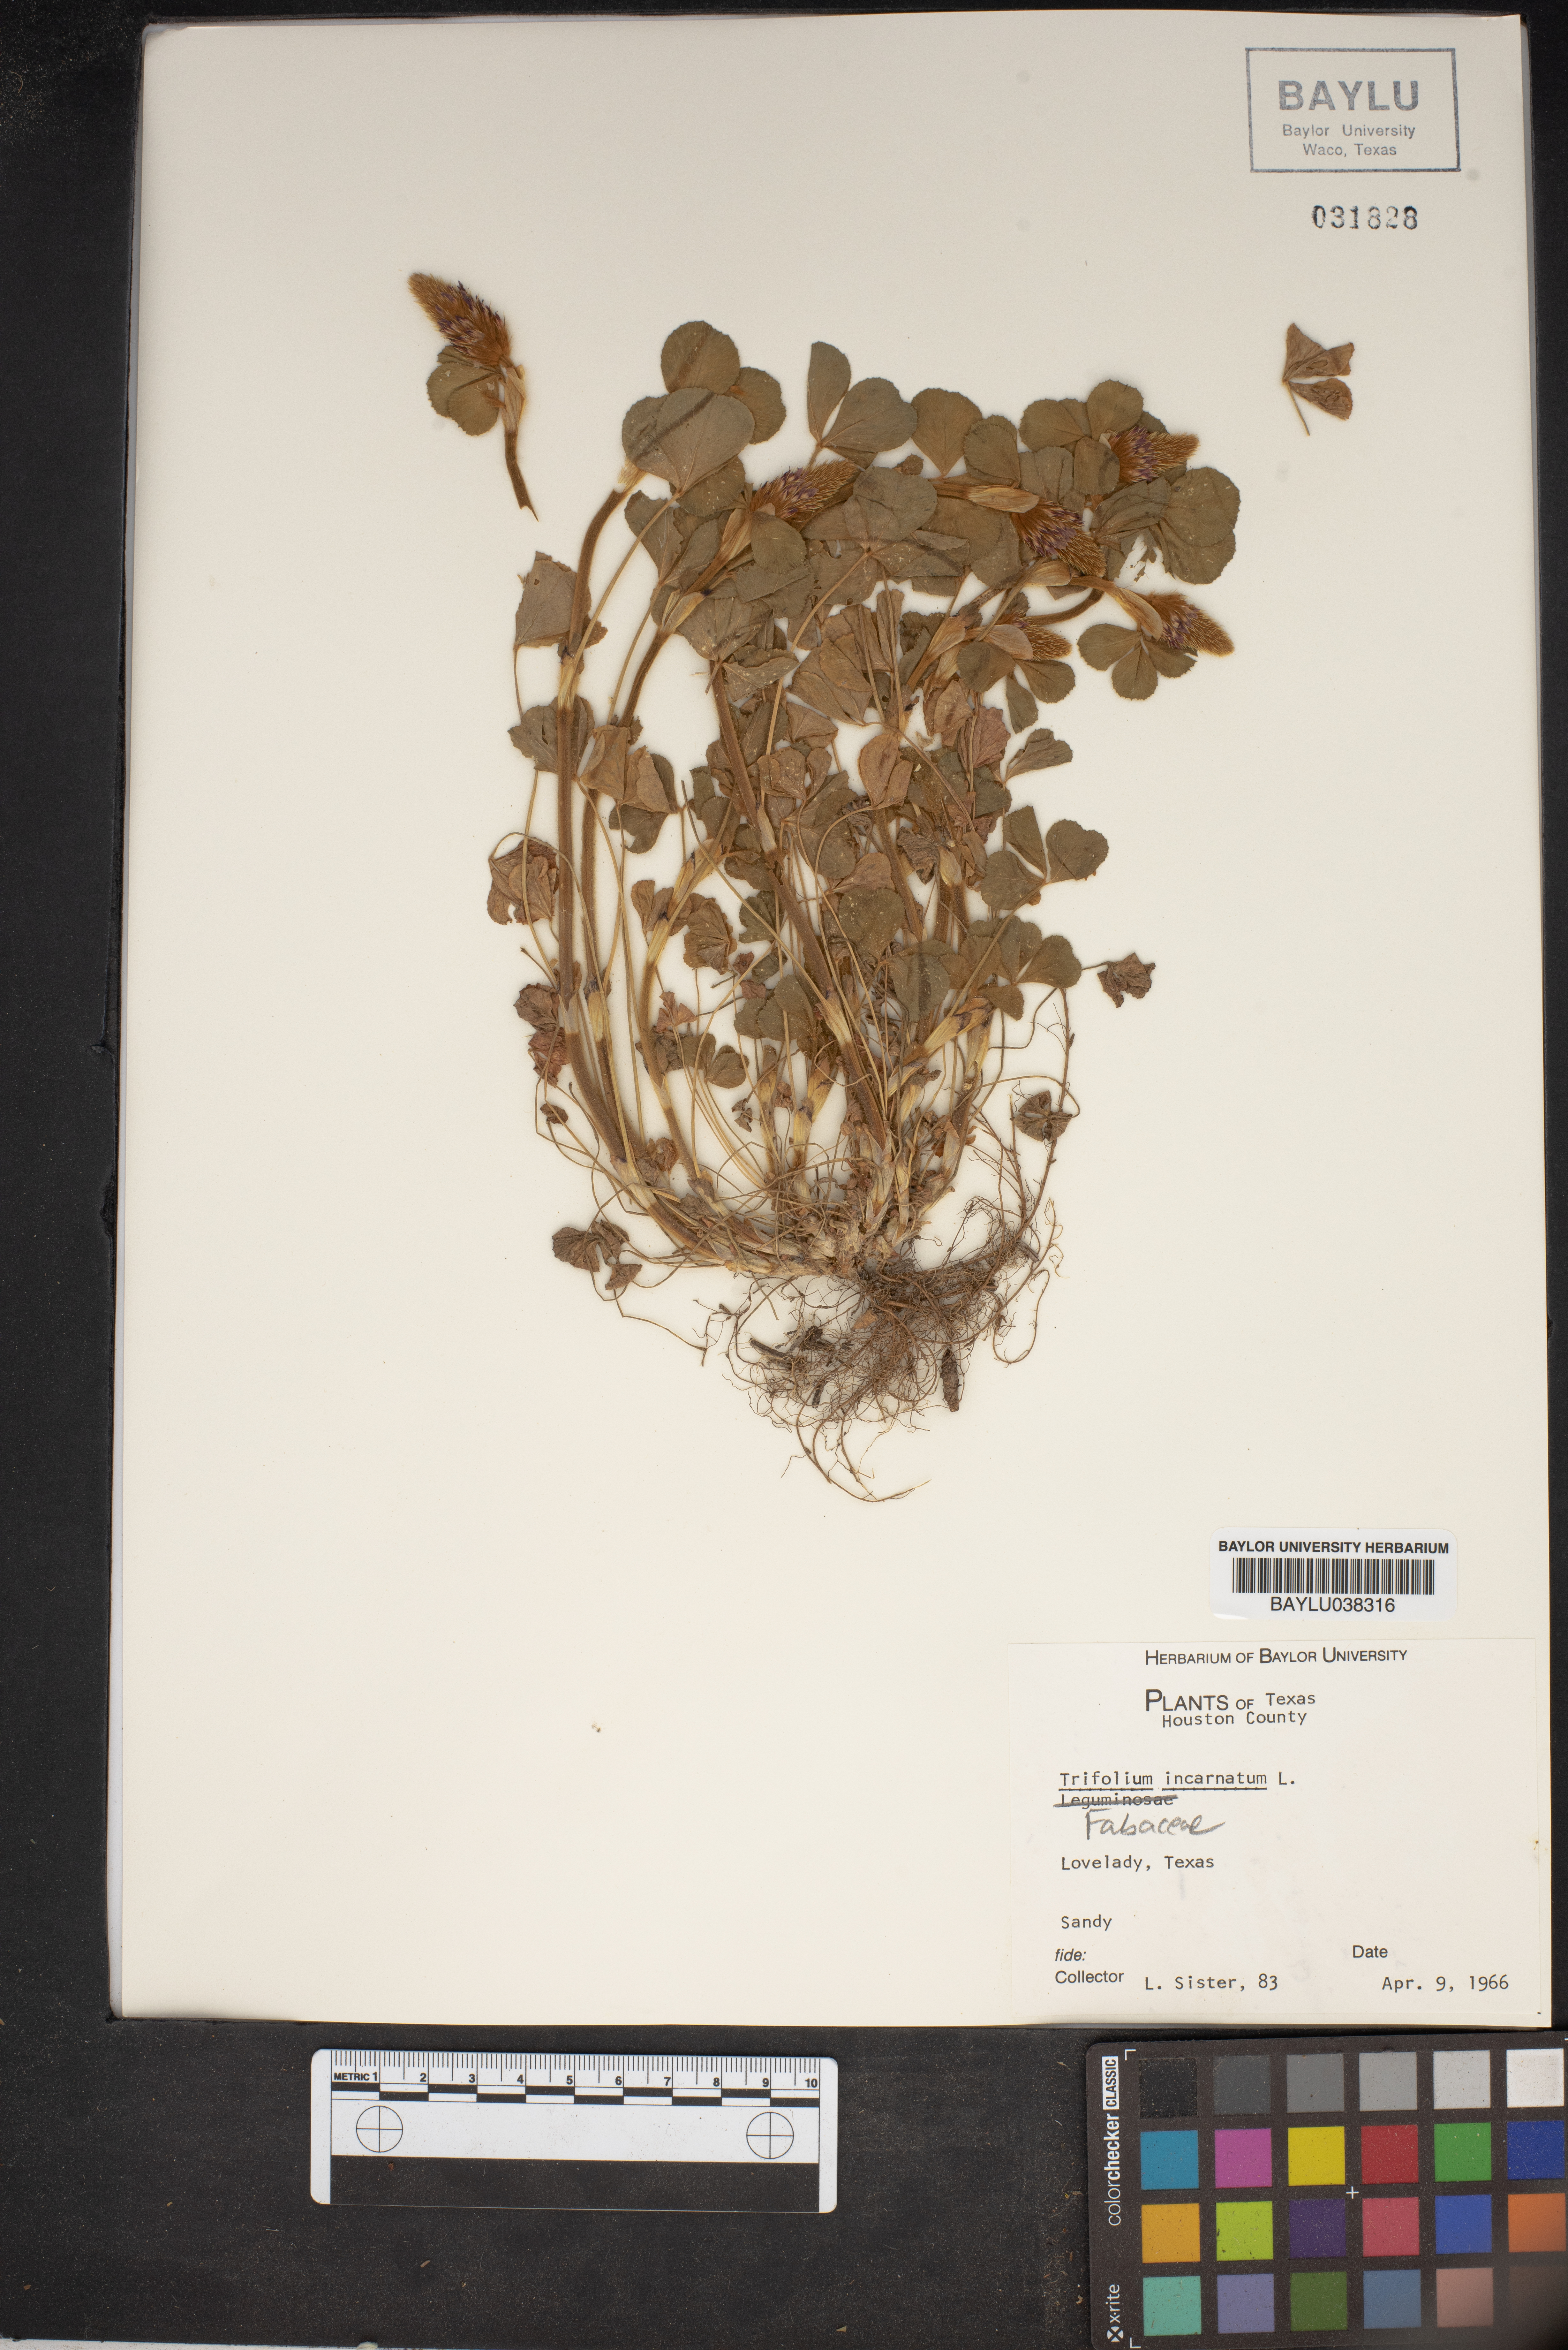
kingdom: Plantae
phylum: Tracheophyta
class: Magnoliopsida
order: Fabales
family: Fabaceae
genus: Trifolium
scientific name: Trifolium incarnatum
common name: Crimson clover
